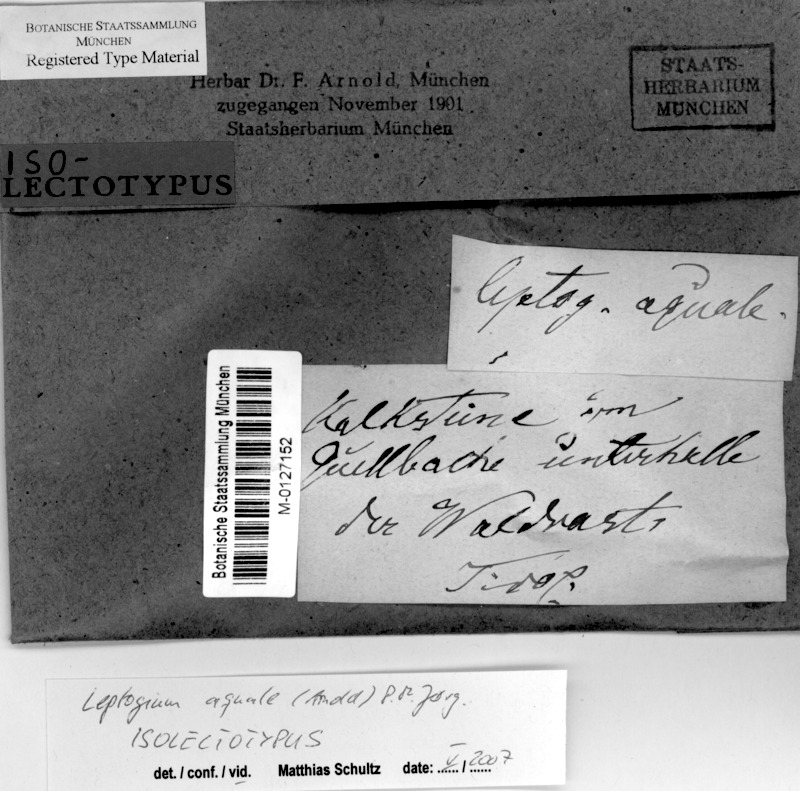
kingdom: Fungi
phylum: Ascomycota
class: Lecanoromycetes
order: Peltigerales
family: Collemataceae
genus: Scytinium
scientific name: Scytinium aquale
